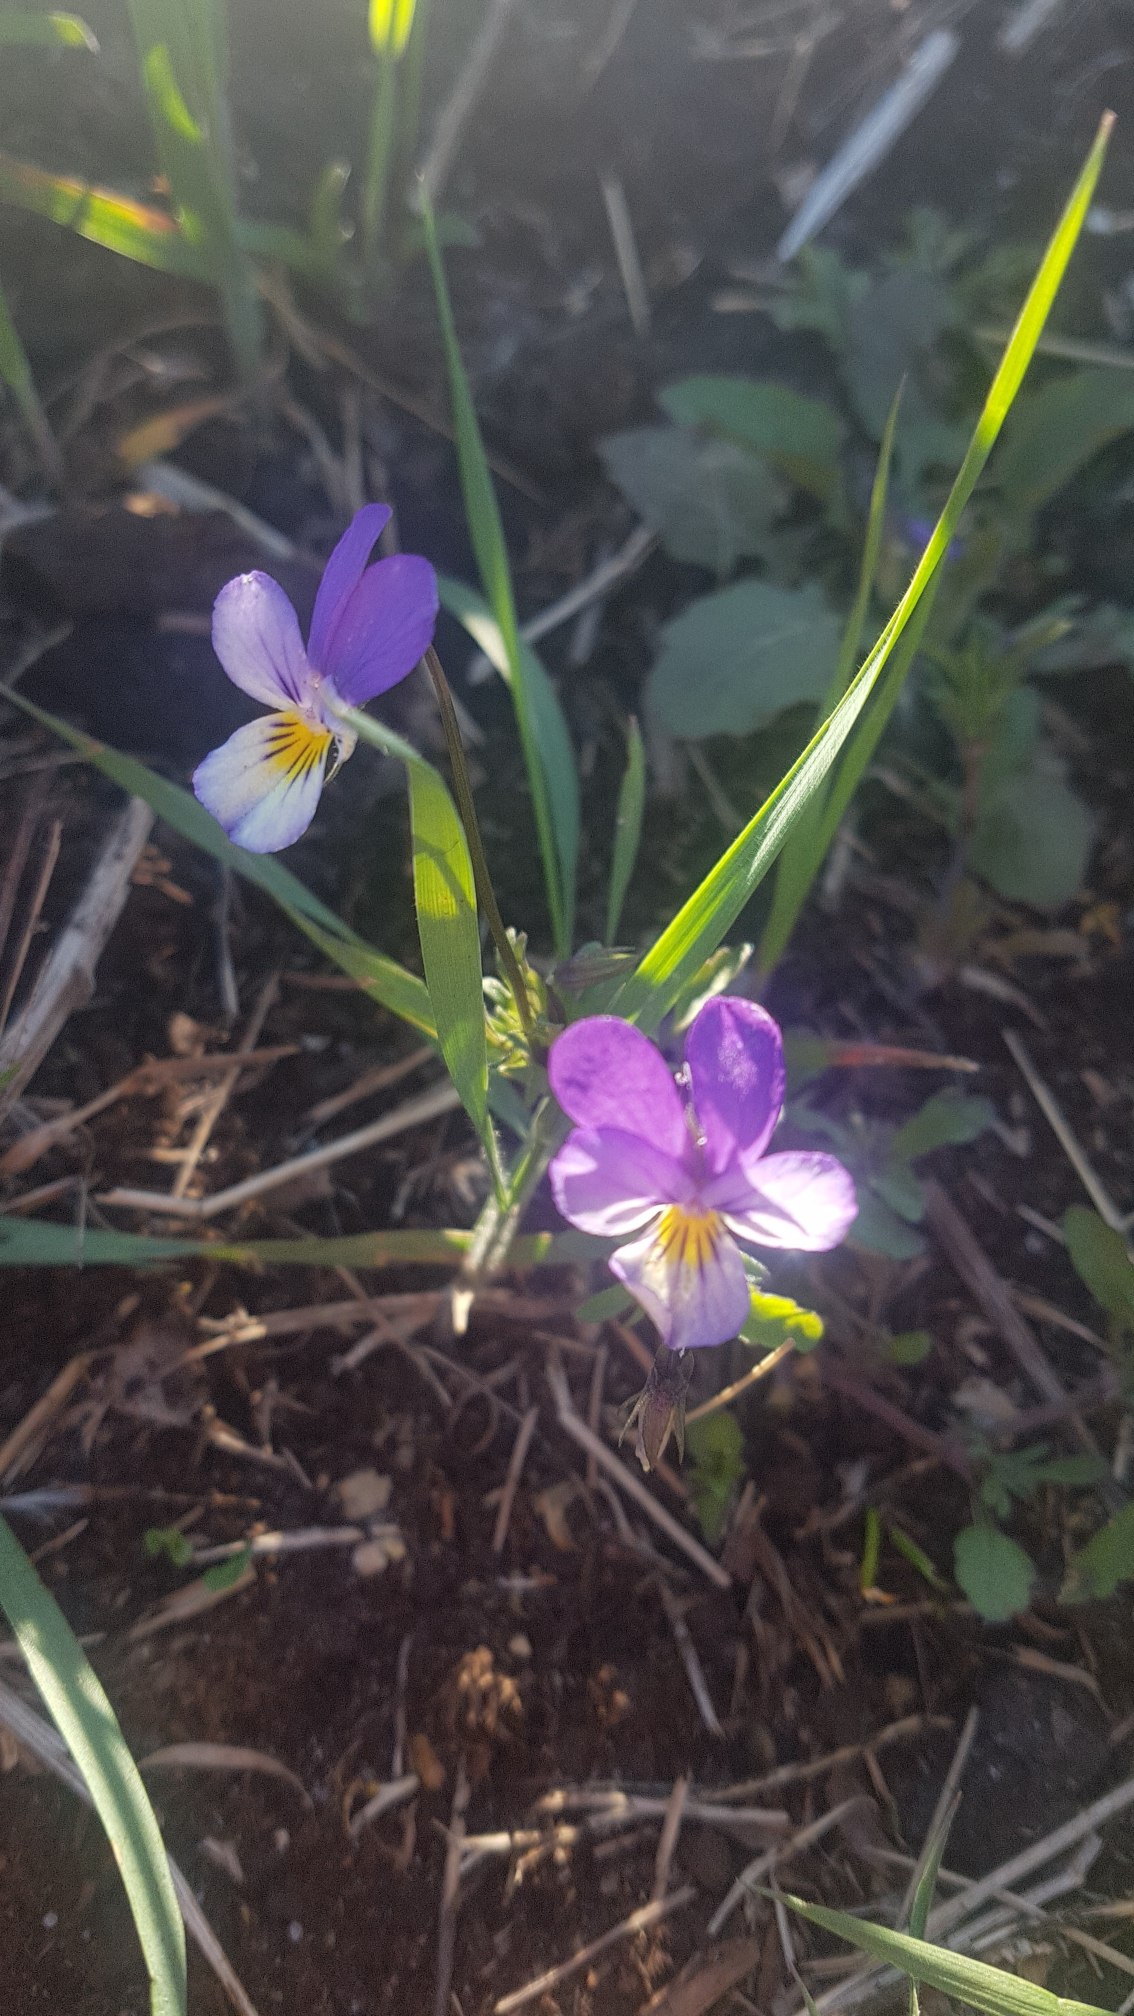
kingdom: Plantae
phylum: Tracheophyta
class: Magnoliopsida
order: Malpighiales
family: Violaceae
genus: Viola
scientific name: Viola tricolor
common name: Stedmoderblomst
